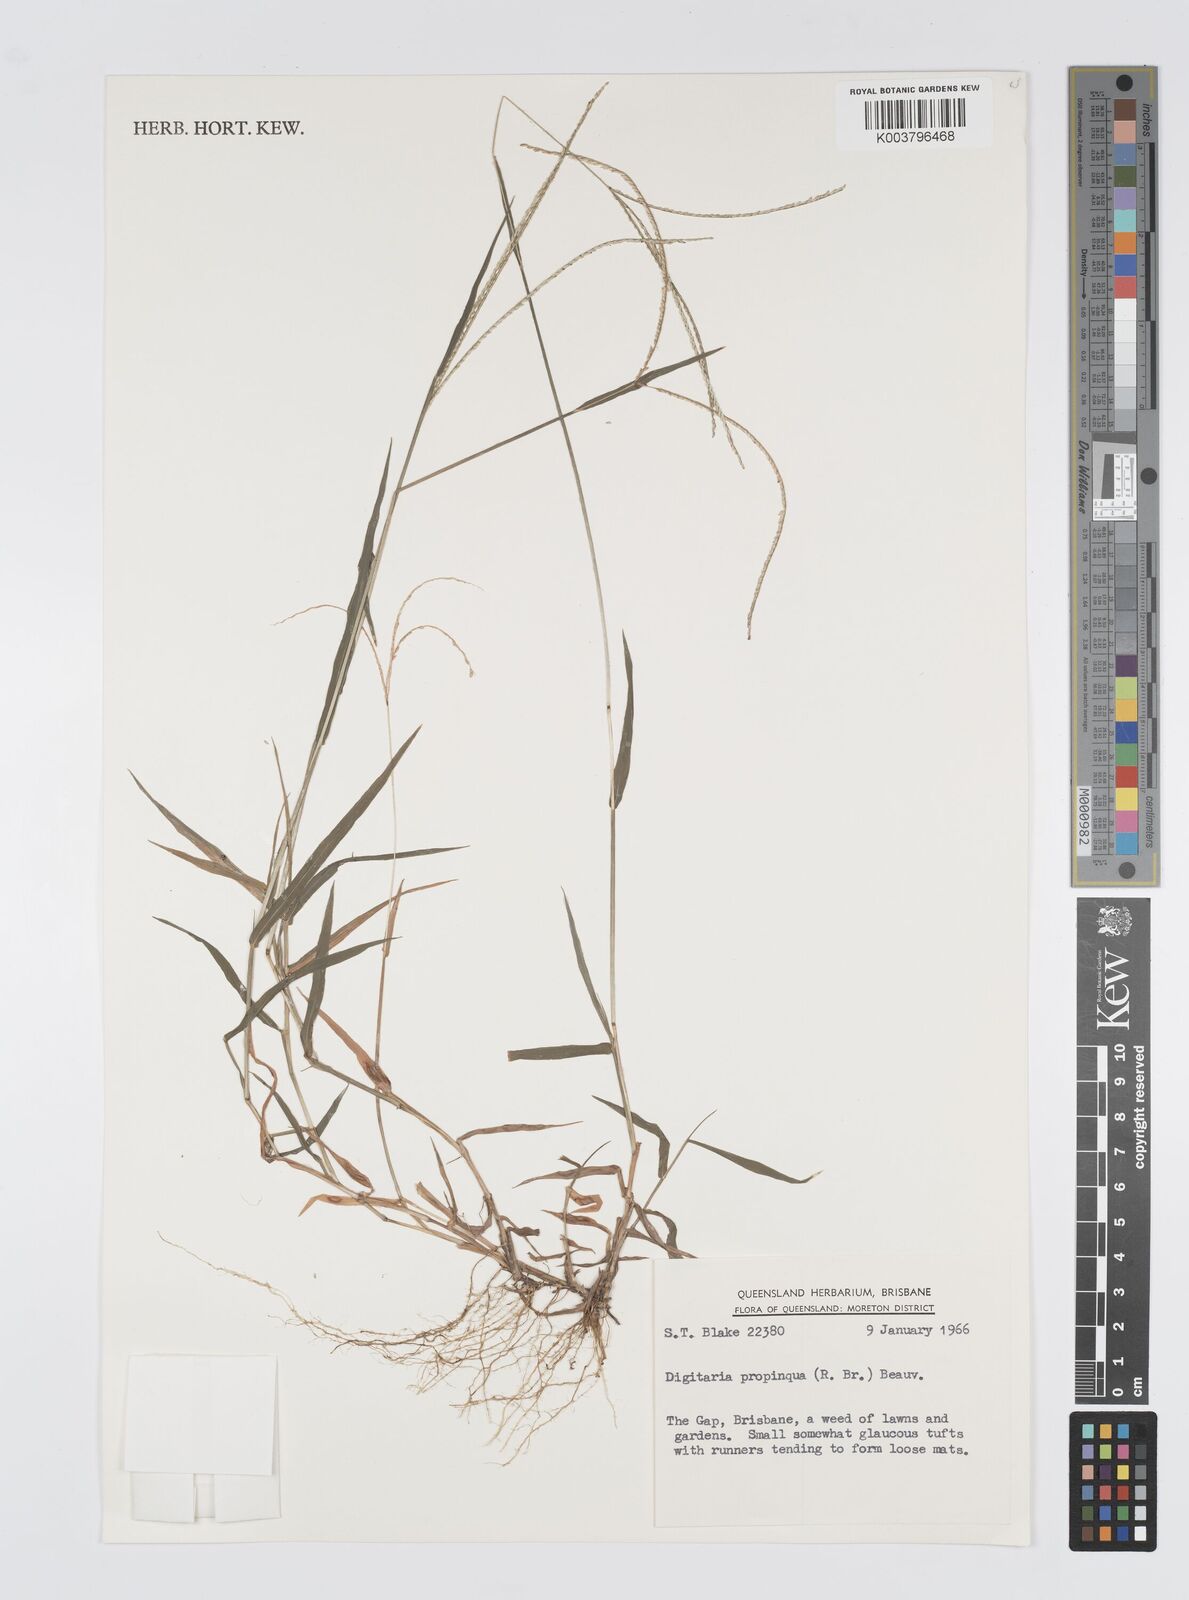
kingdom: Plantae
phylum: Tracheophyta
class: Liliopsida
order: Poales
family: Poaceae
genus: Digitaria
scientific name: Digitaria longiflora
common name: Wire crabgrass
